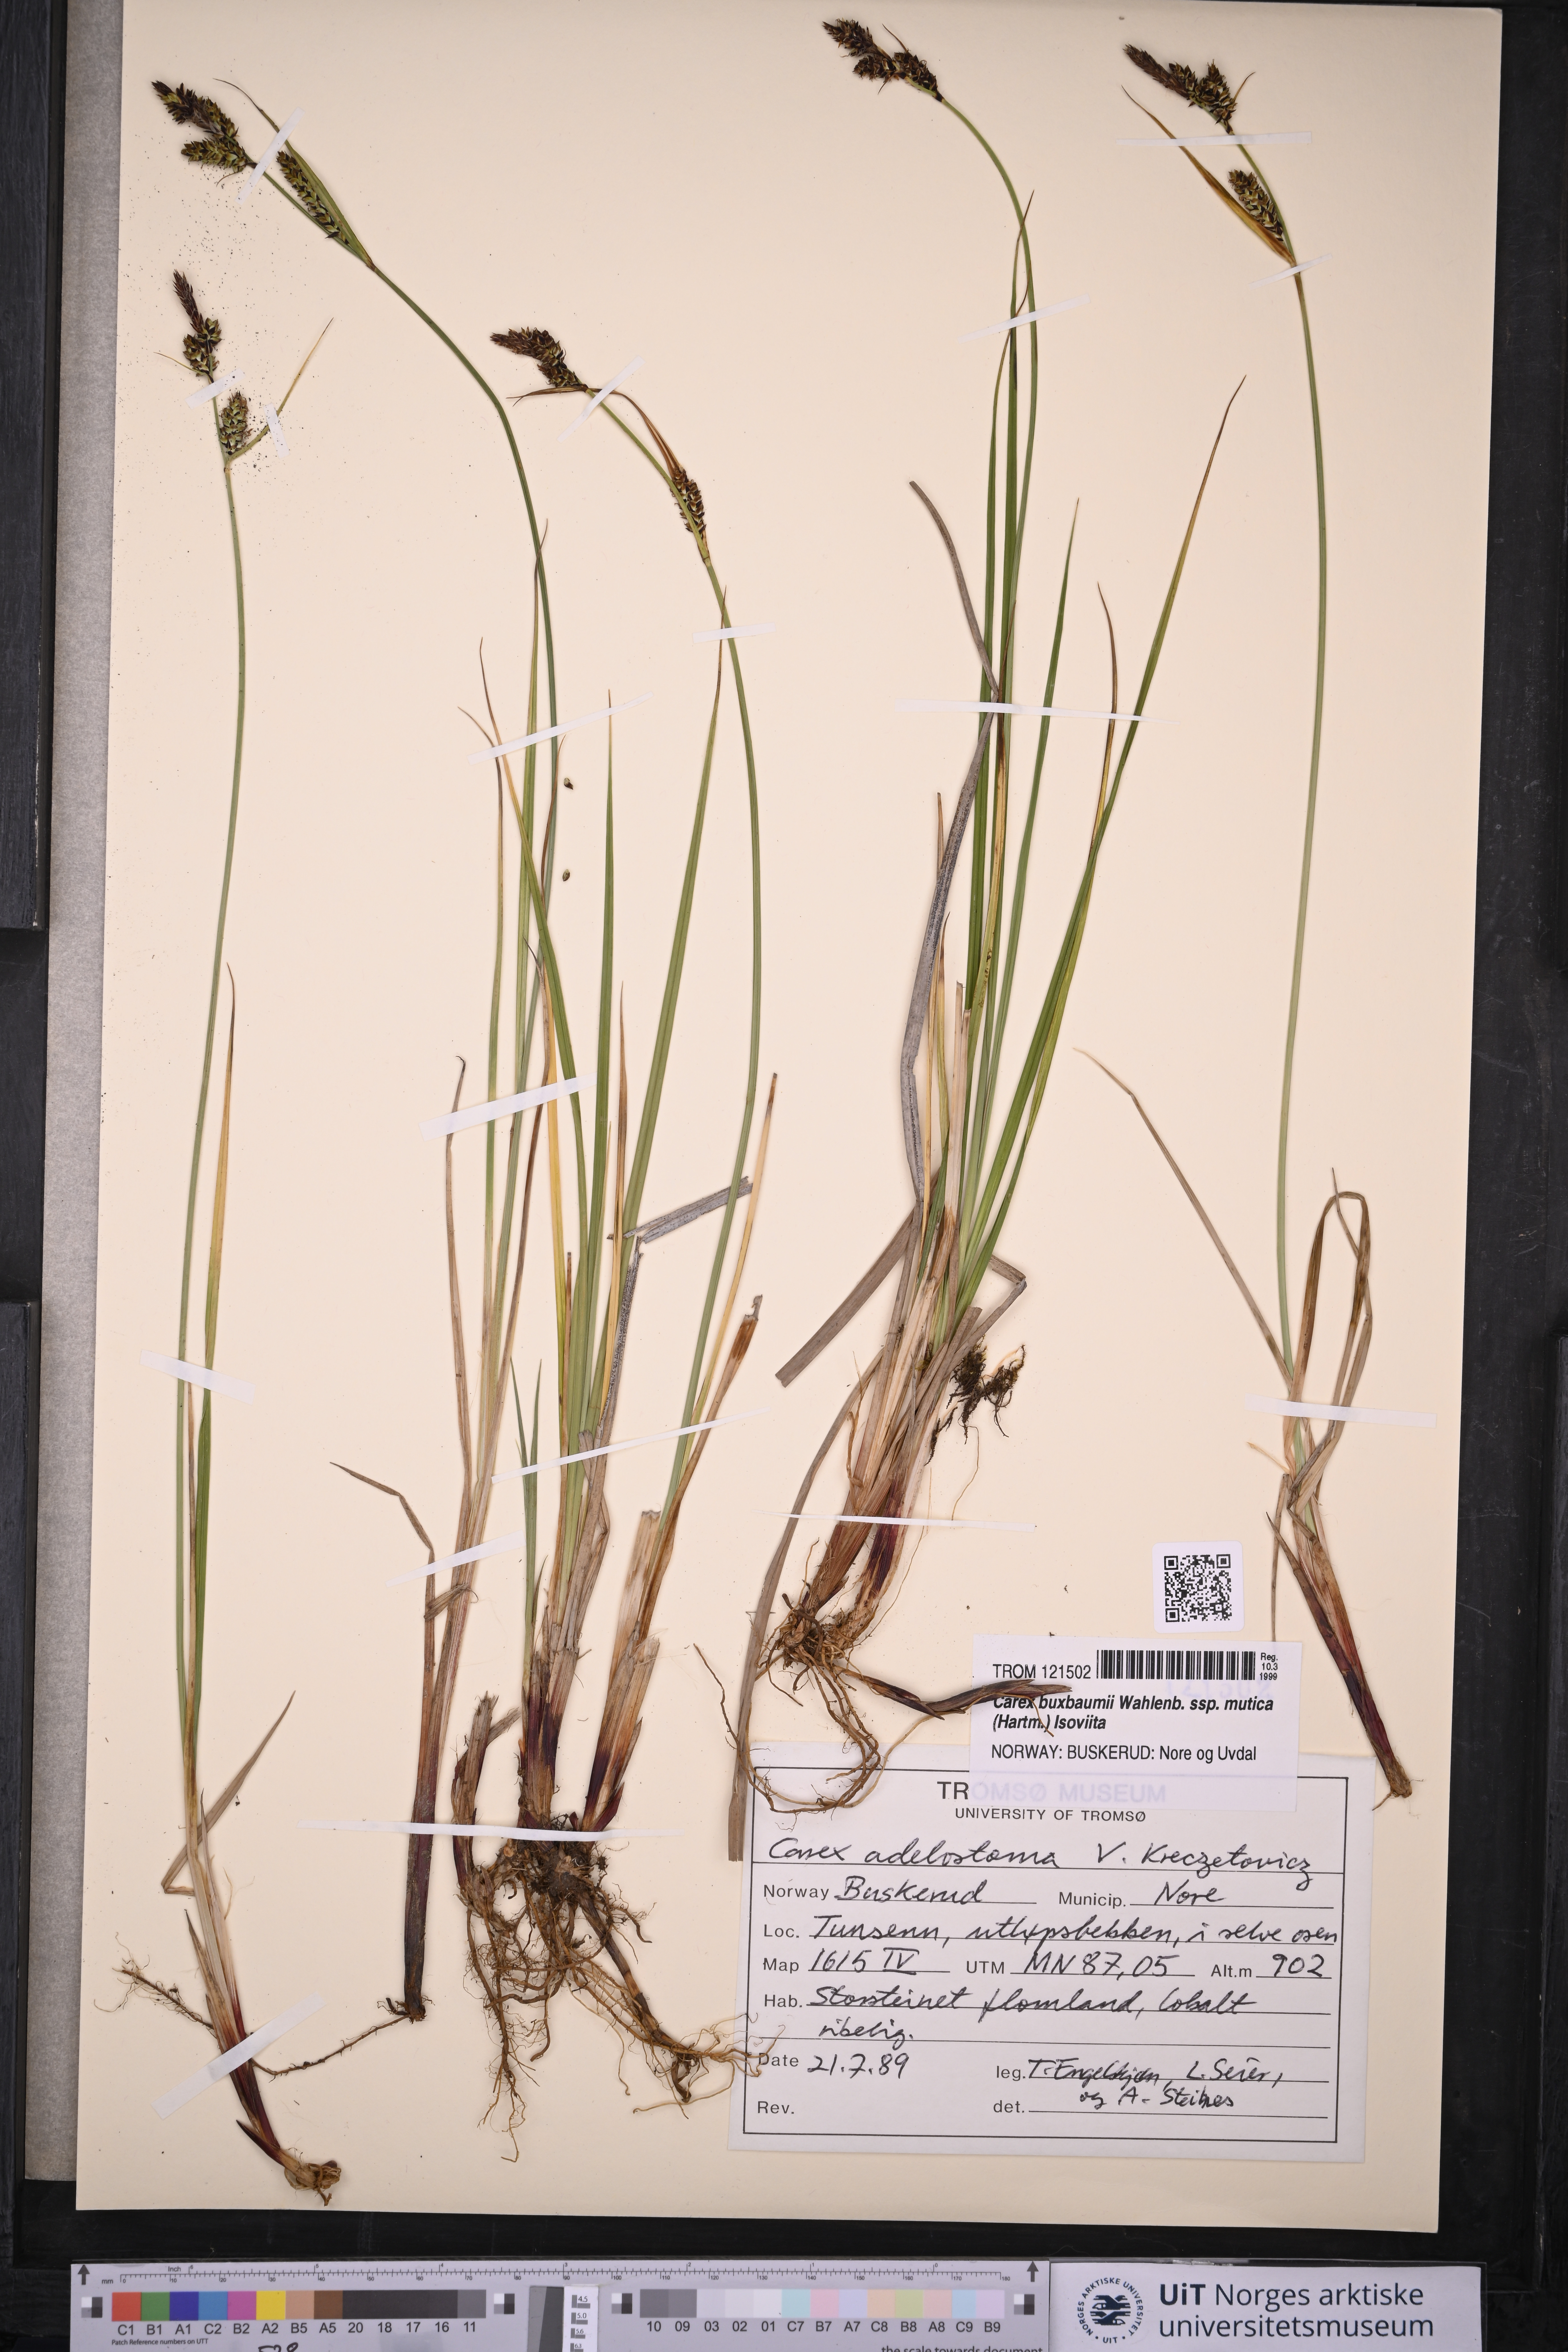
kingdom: Plantae
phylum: Tracheophyta
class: Liliopsida
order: Poales
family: Cyperaceae
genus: Carex
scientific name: Carex adelostoma
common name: Circumpolar sedge
